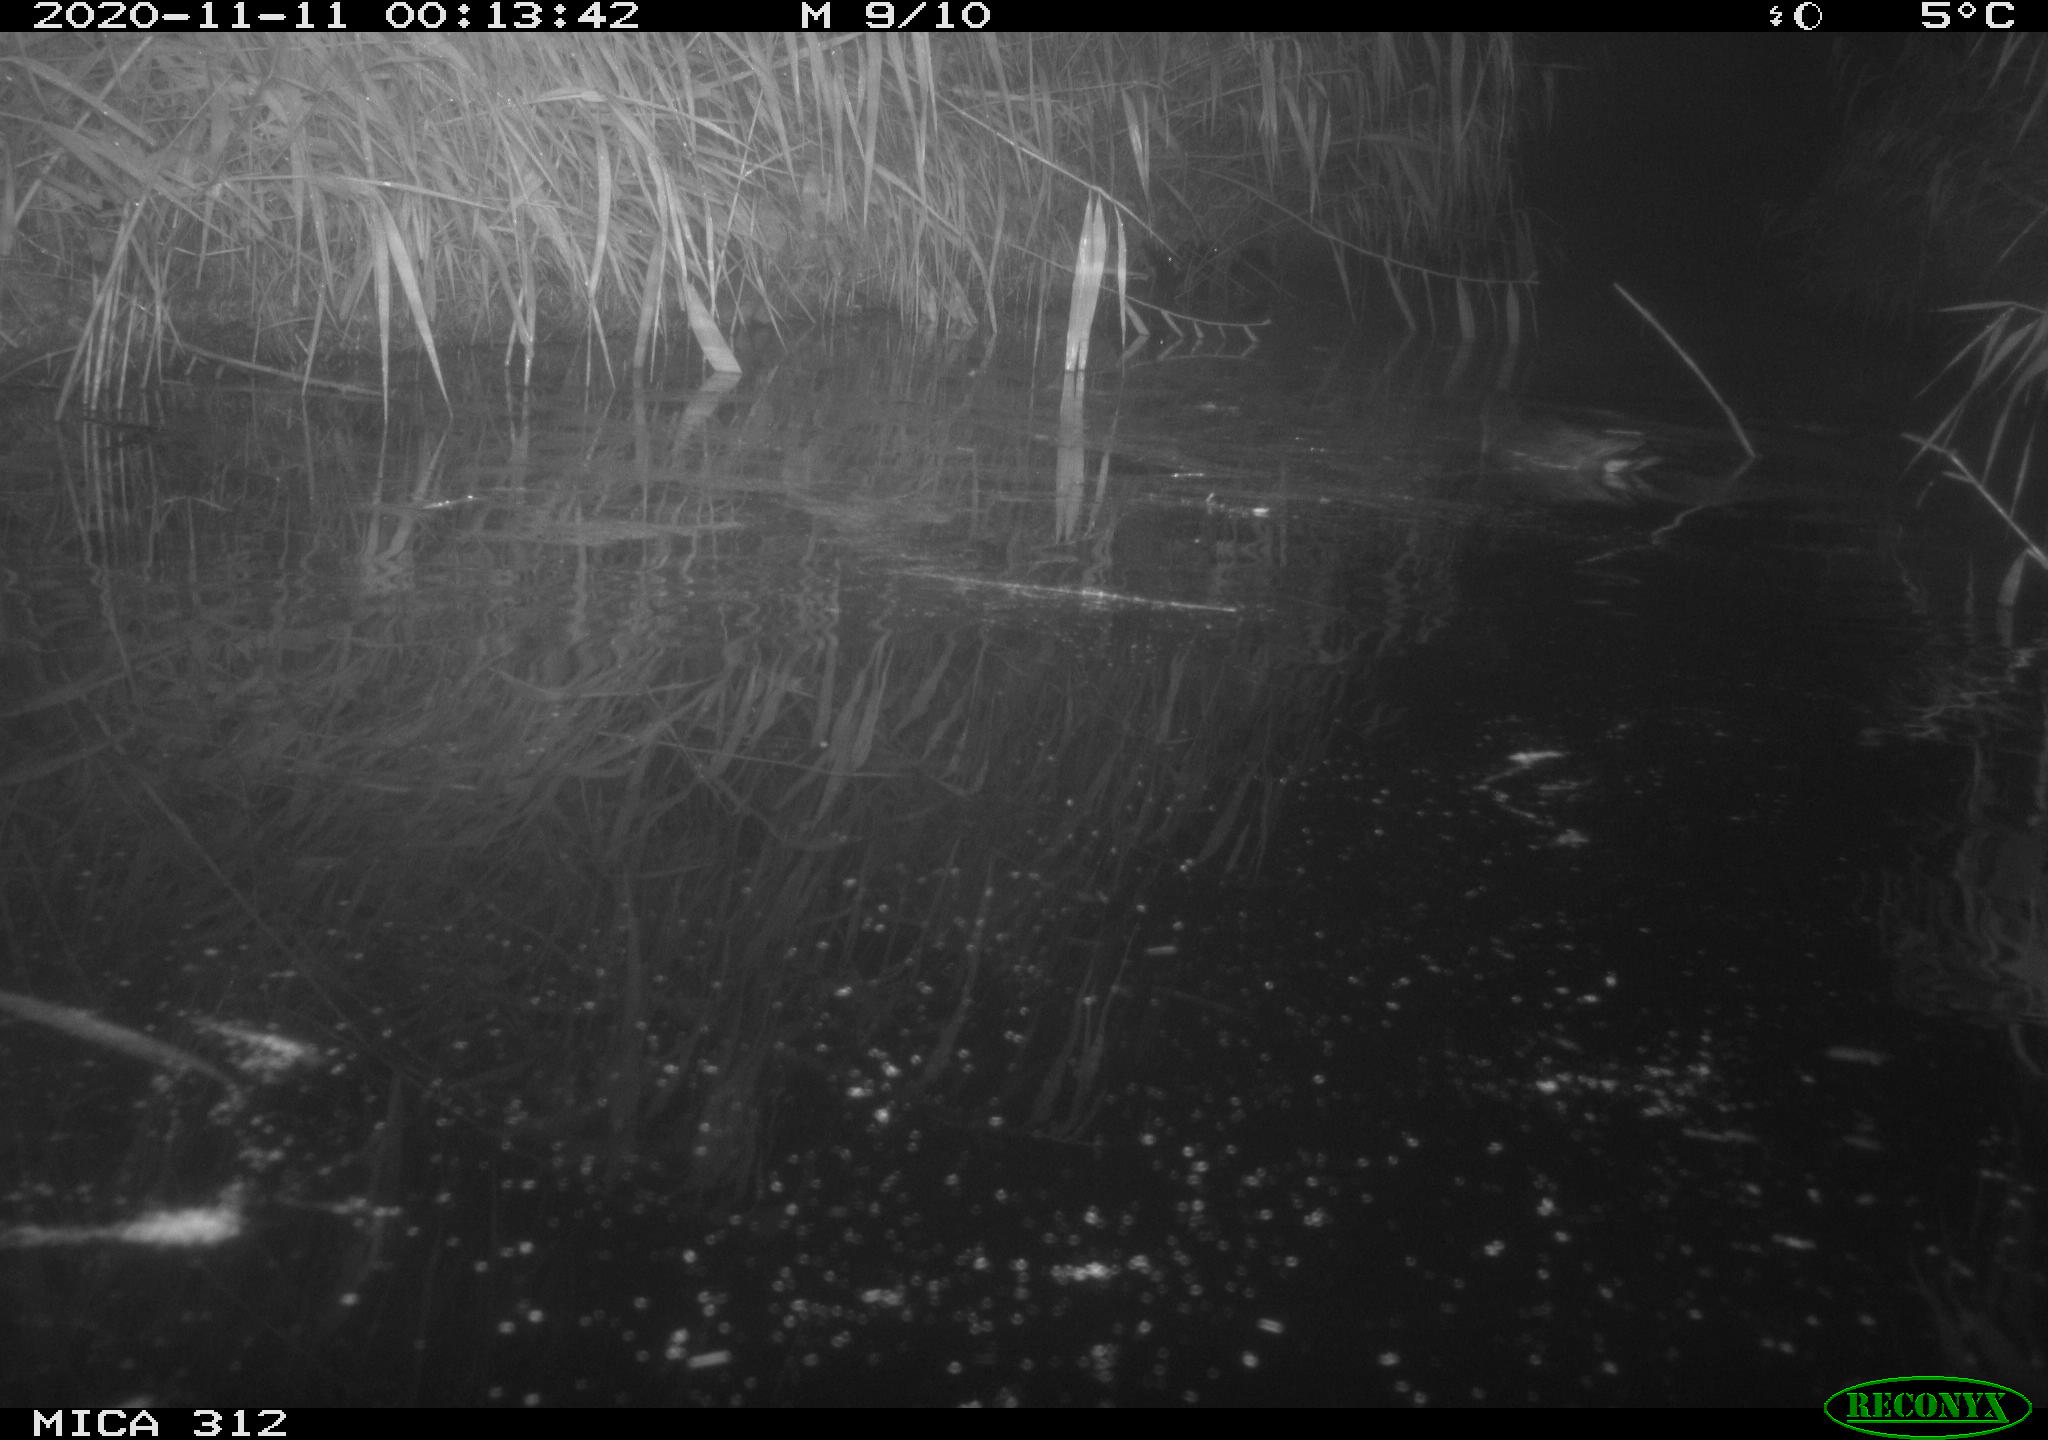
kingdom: Animalia
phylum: Chordata
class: Mammalia
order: Rodentia
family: Muridae
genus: Rattus
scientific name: Rattus norvegicus
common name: Brown rat
